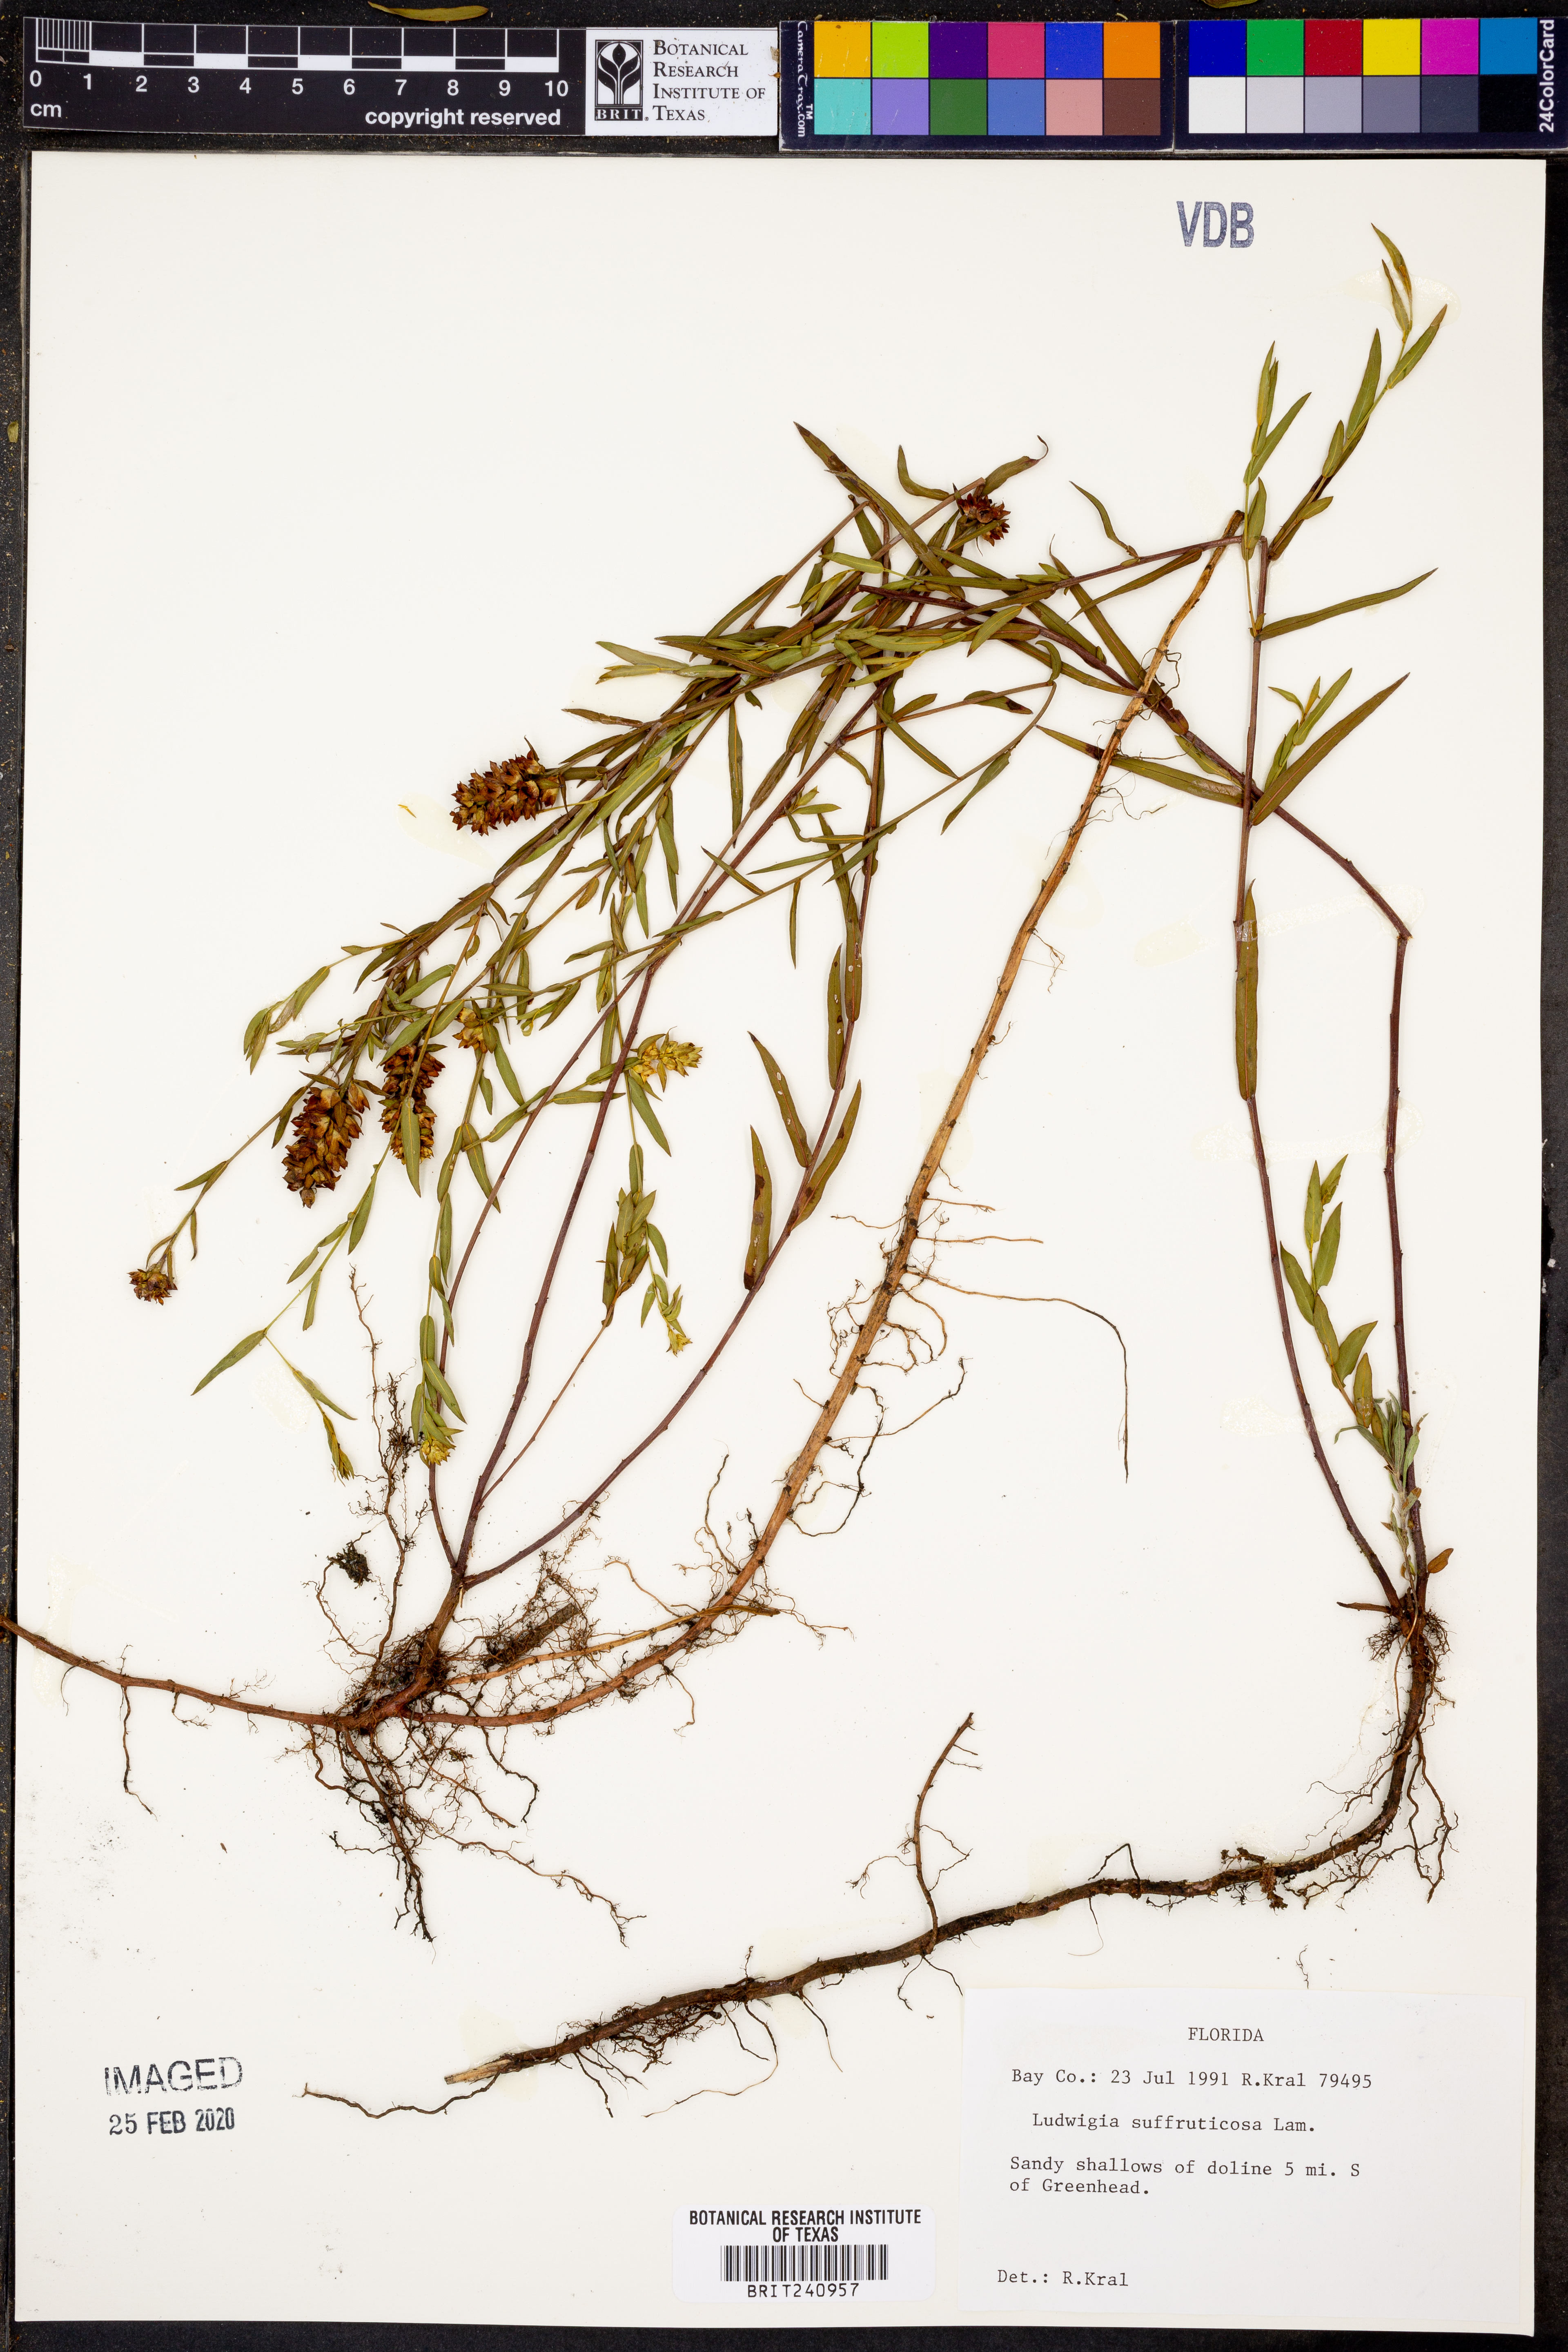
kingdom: Plantae
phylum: Tracheophyta
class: Magnoliopsida
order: Myrtales
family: Onagraceae
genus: Ludwigia
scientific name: Ludwigia suffruticosa
